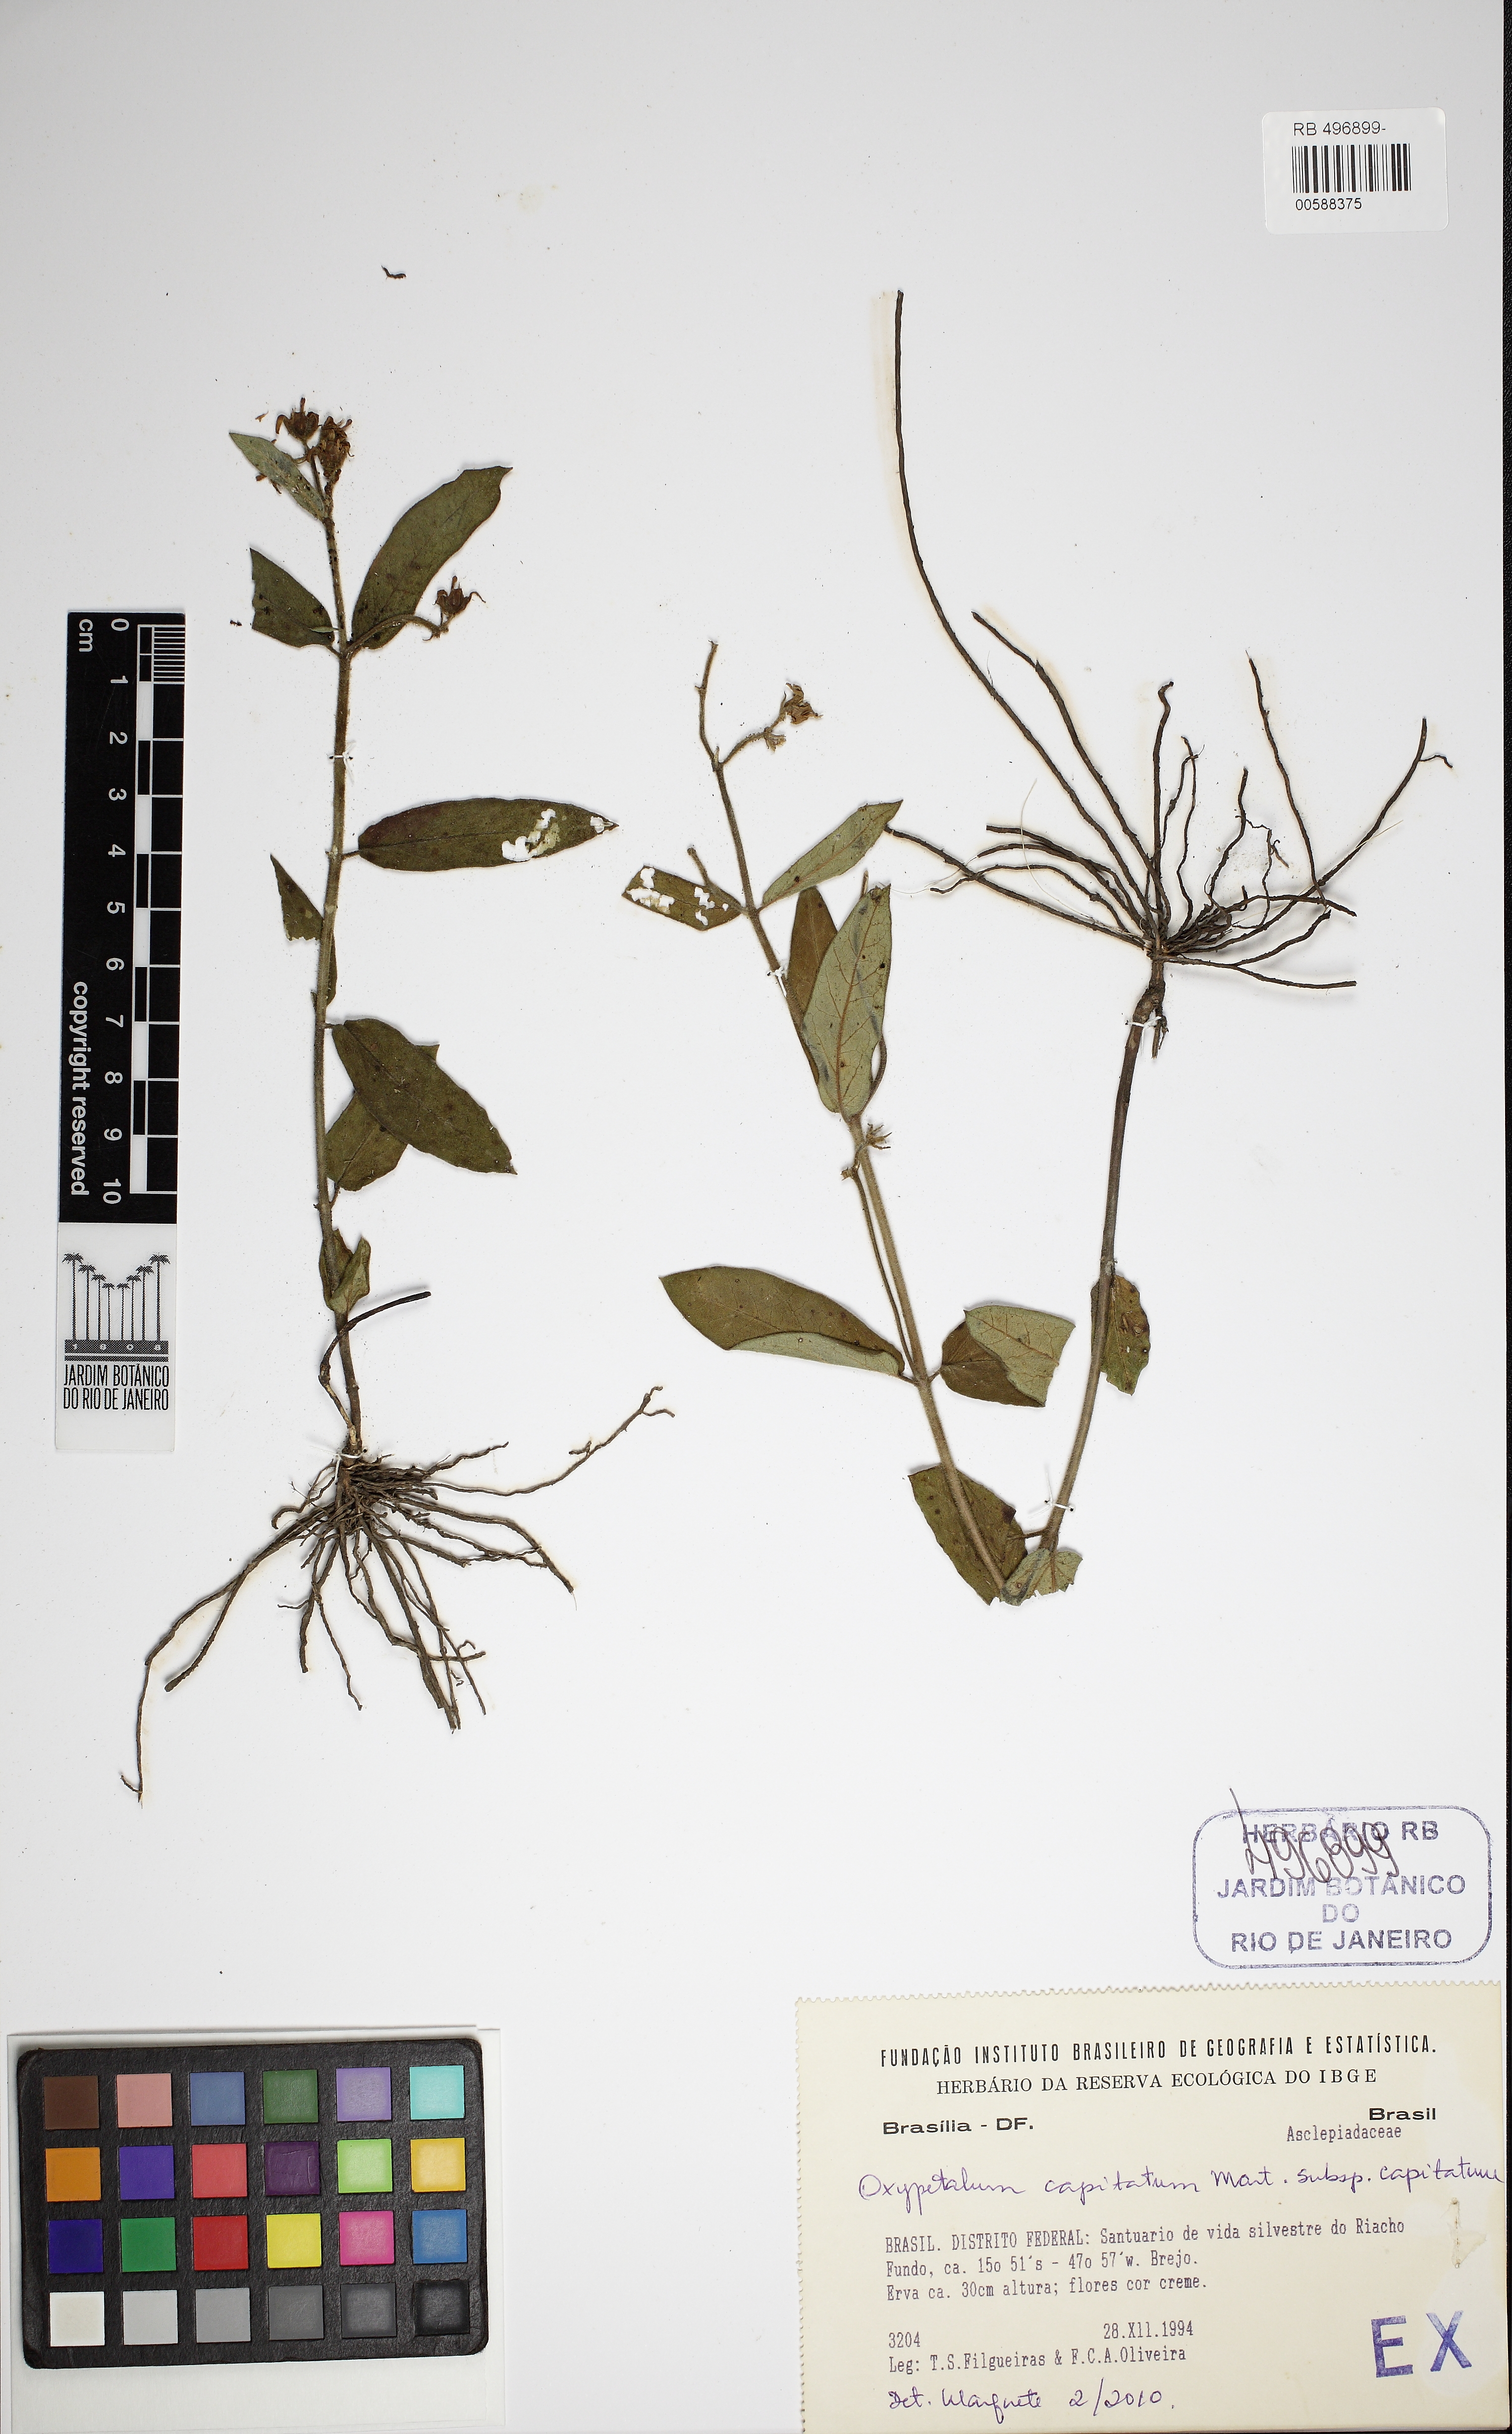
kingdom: Plantae
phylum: Tracheophyta
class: Magnoliopsida
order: Gentianales
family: Apocynaceae
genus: Oxypetalum
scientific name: Oxypetalum capitatum
